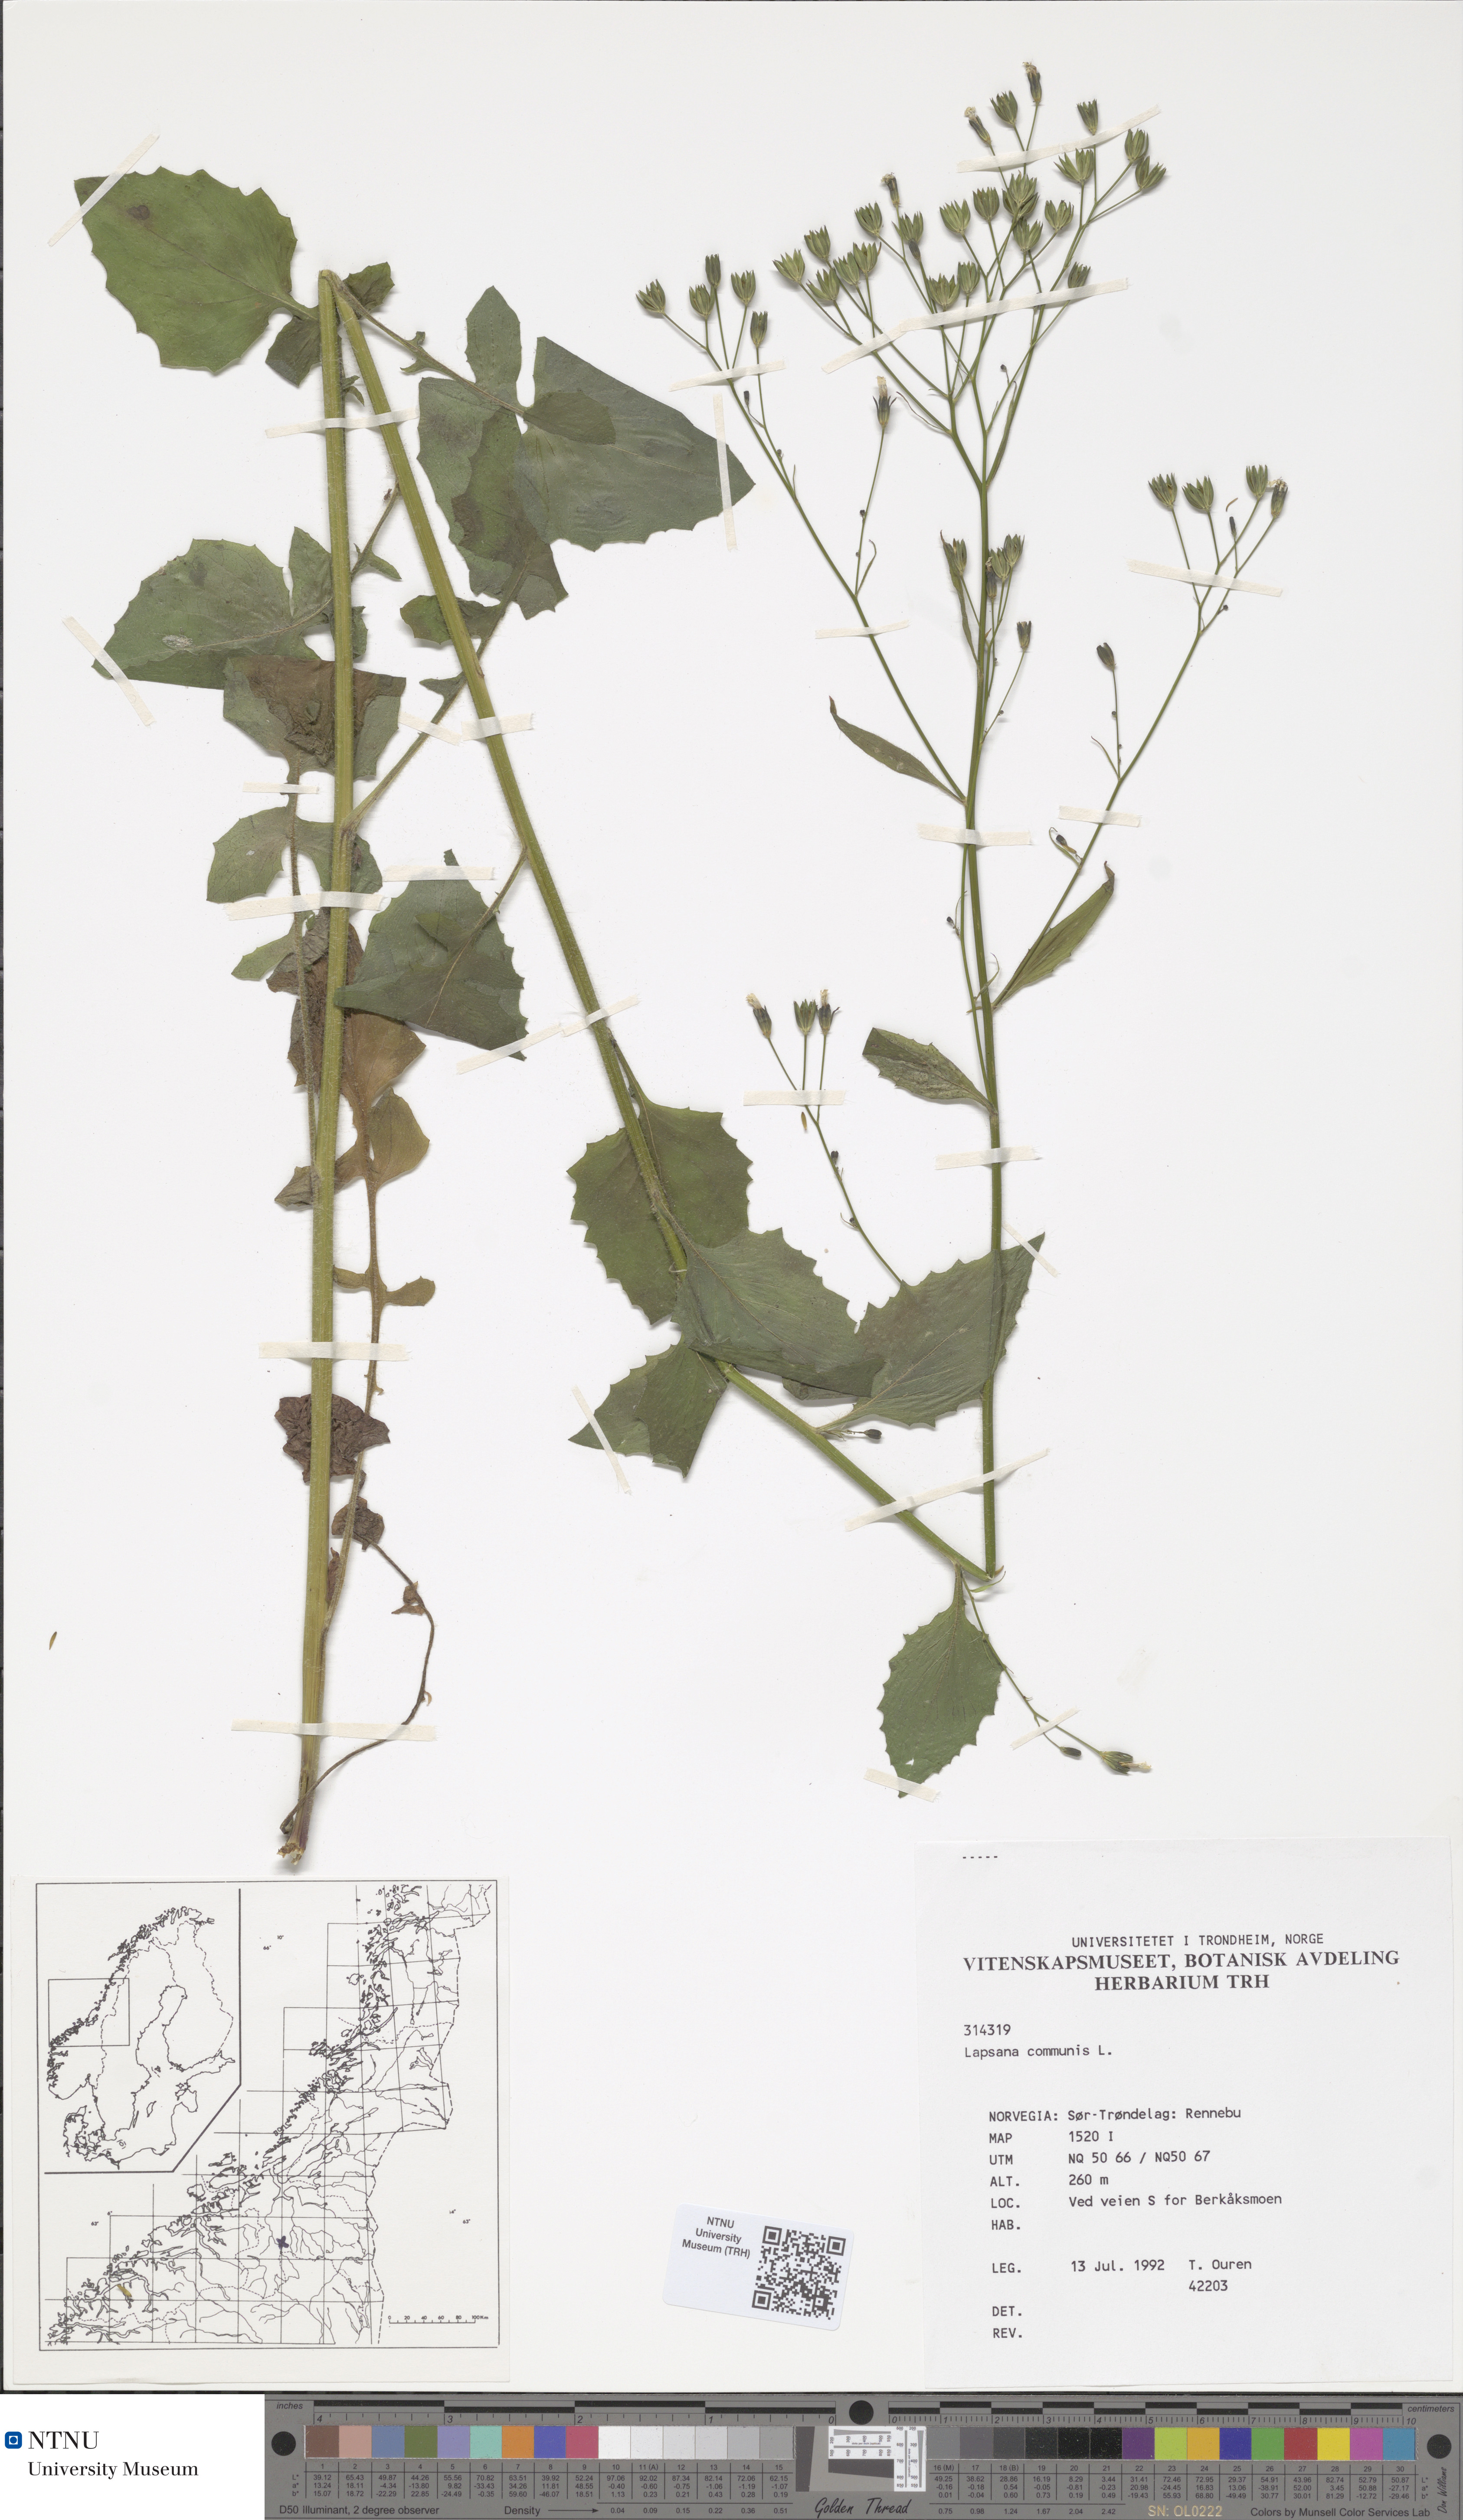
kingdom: Plantae
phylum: Tracheophyta
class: Magnoliopsida
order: Asterales
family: Asteraceae
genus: Lapsana
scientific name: Lapsana communis
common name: Nipplewort
